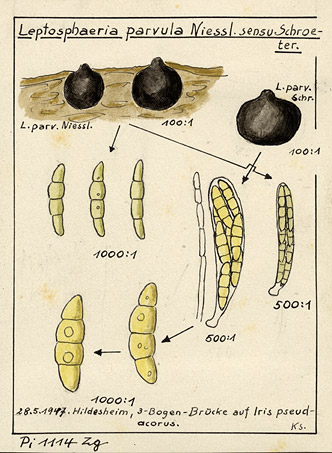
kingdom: Fungi
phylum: Ascomycota
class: Dothideomycetes
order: Pleosporales
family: Phaeosphaeriaceae
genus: Phaeosphaeria
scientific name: Phaeosphaeria eustoma
